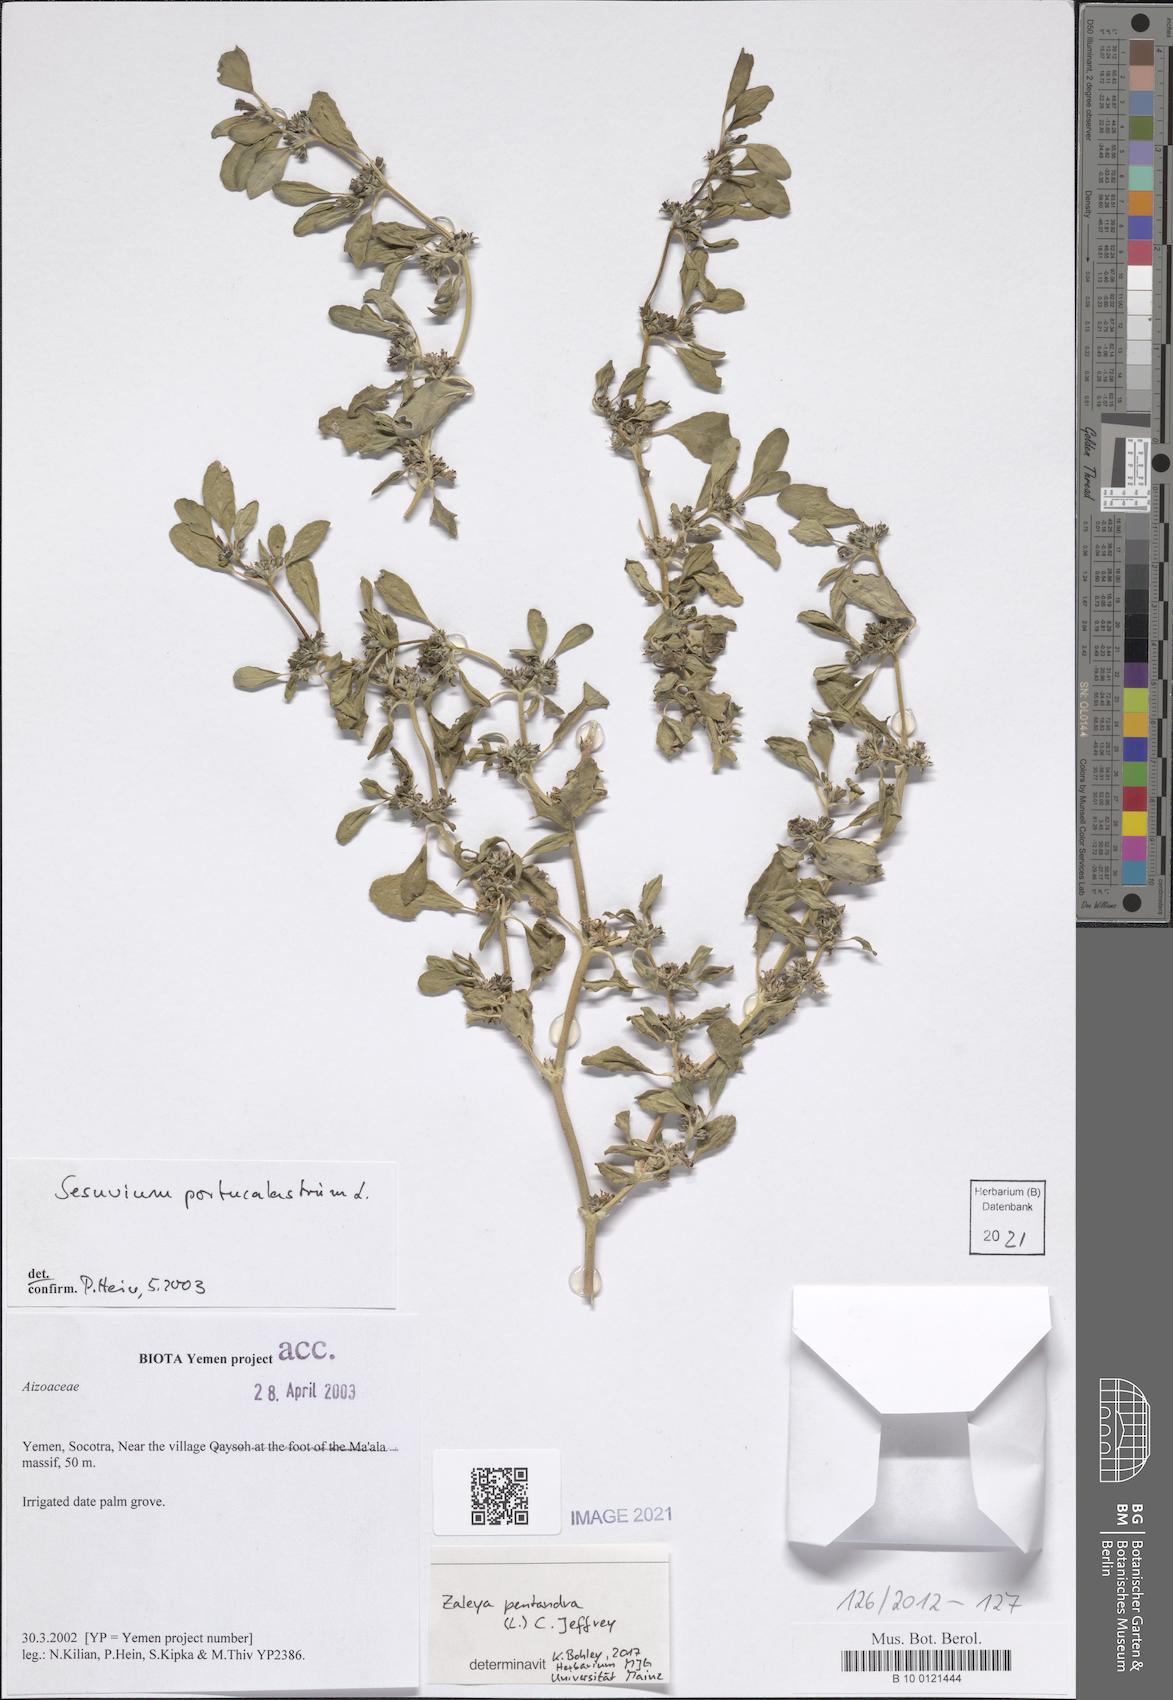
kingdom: Plantae
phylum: Tracheophyta
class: Magnoliopsida
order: Caryophyllales
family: Aizoaceae
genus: Zaleya
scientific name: Zaleya pentandra
